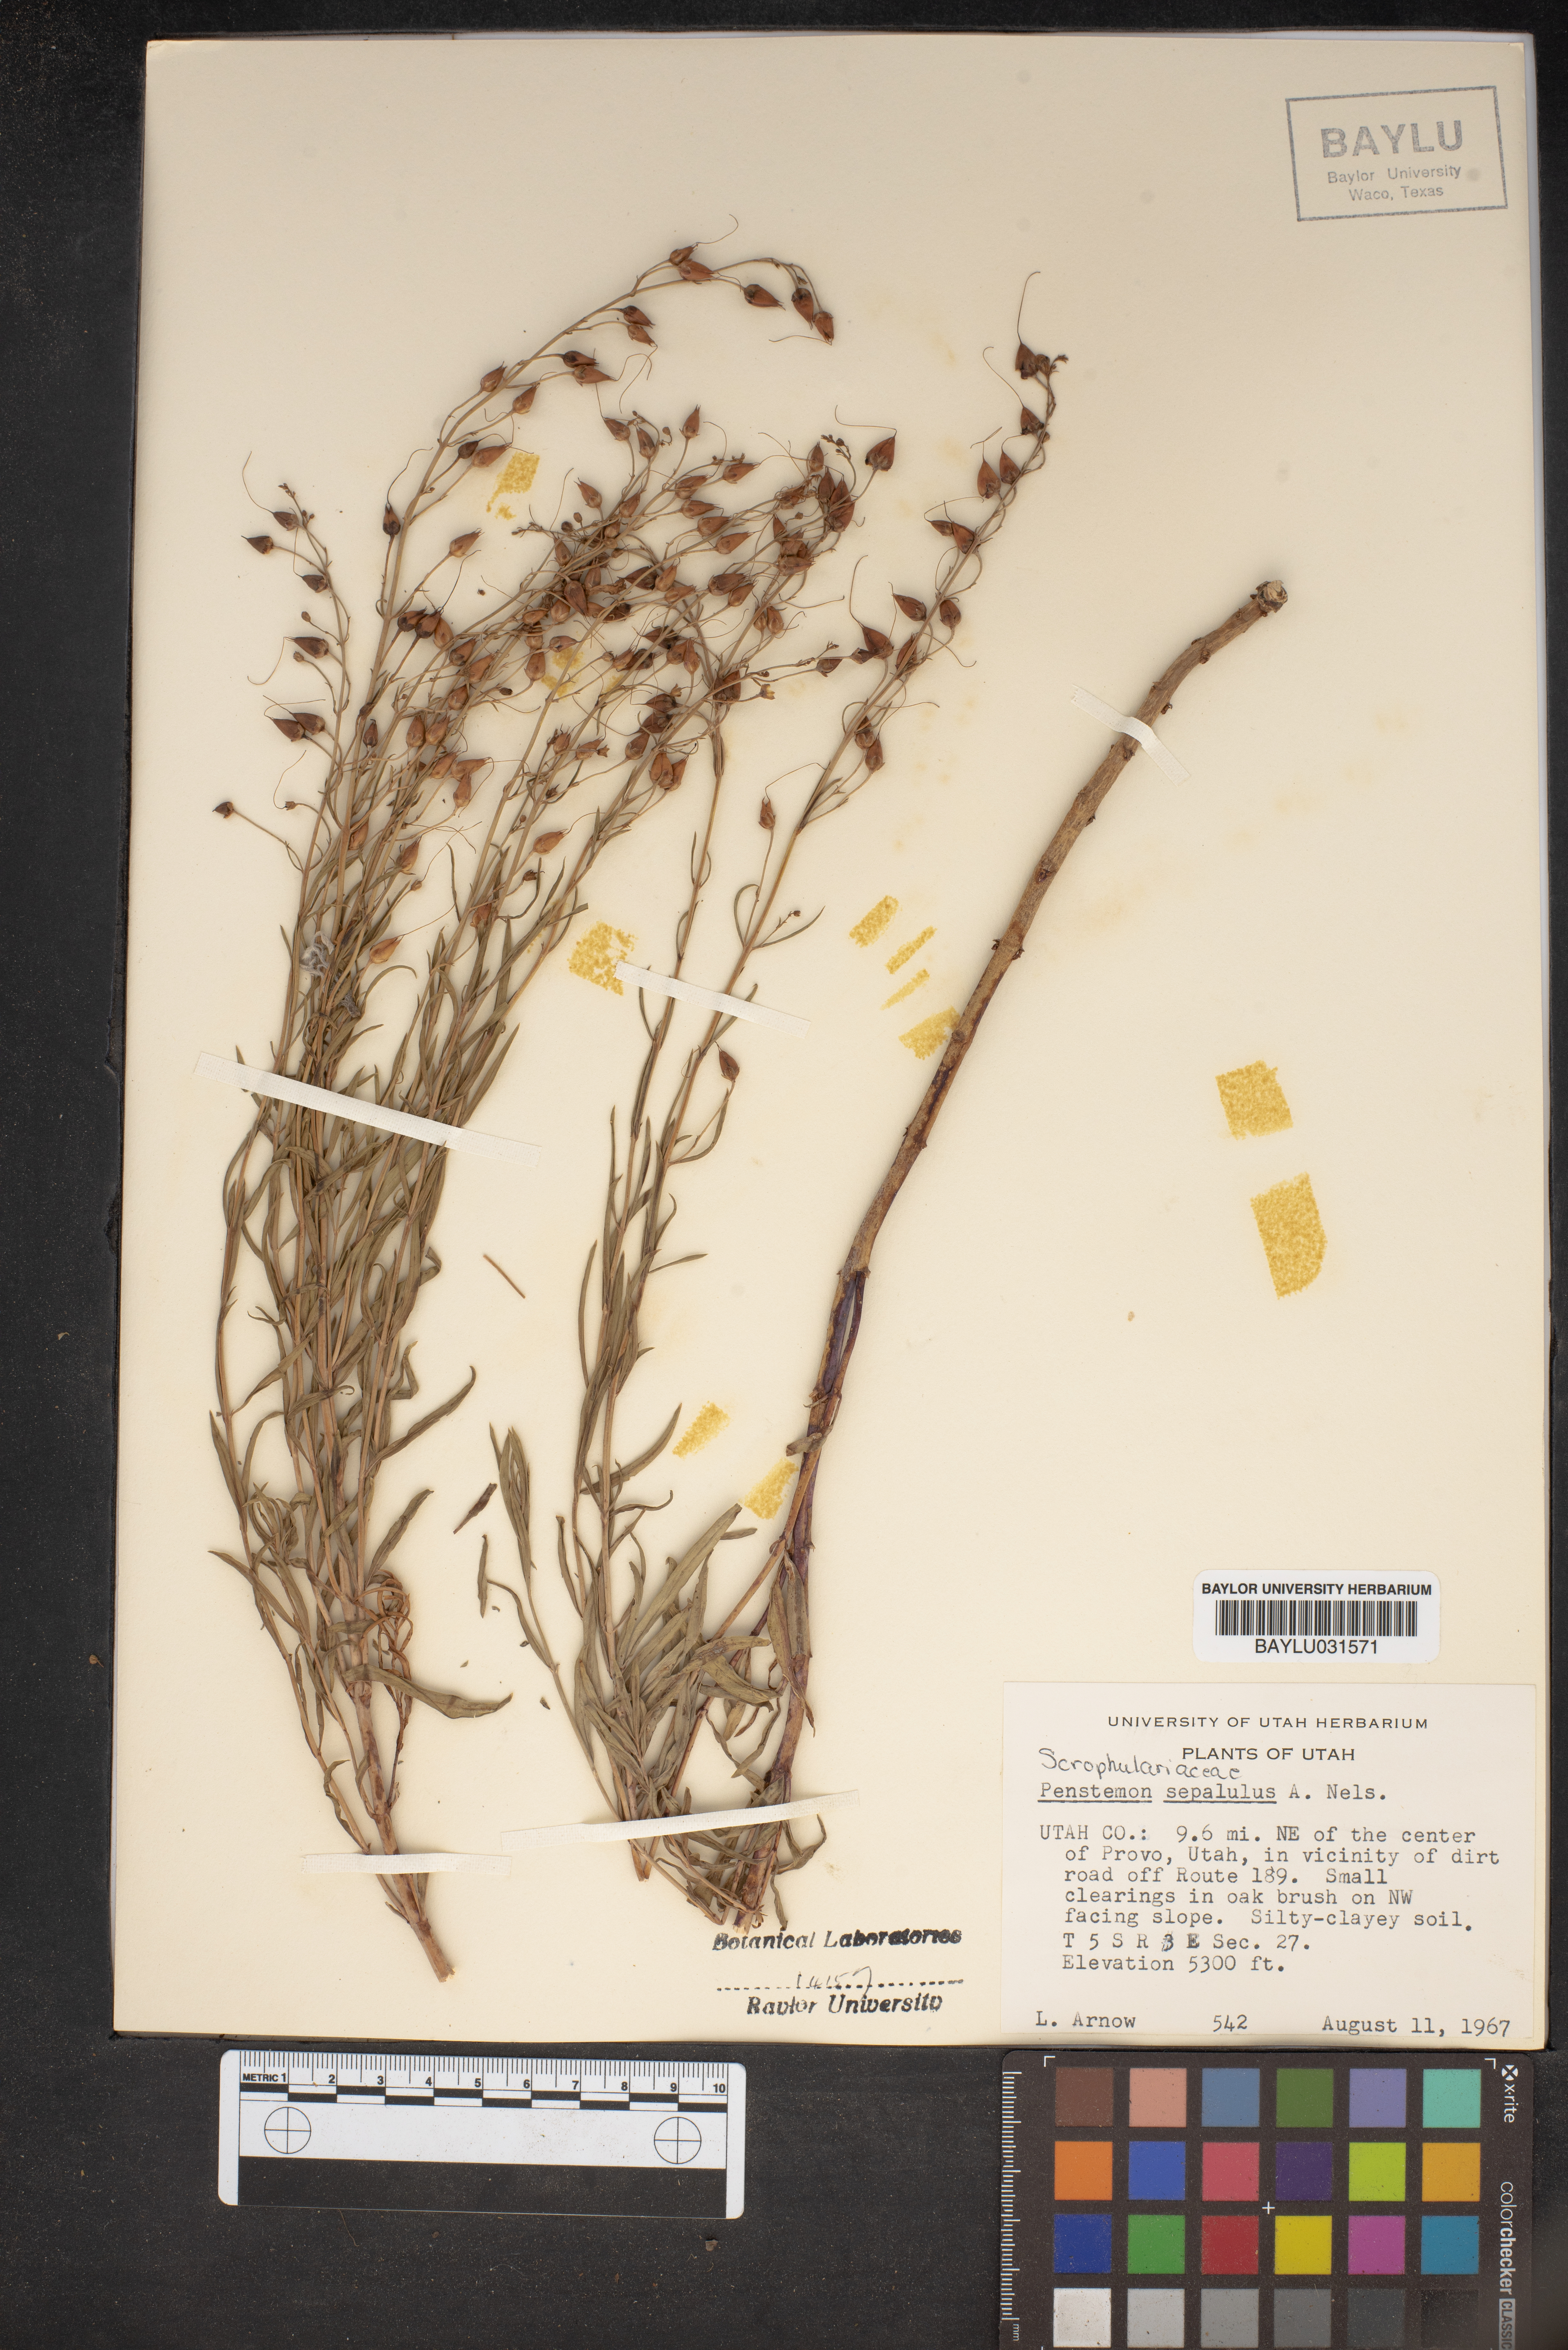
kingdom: Plantae
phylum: Tracheophyta
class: Magnoliopsida
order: Lamiales
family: Plantaginaceae
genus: Penstemon
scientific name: Penstemon sepalulus
